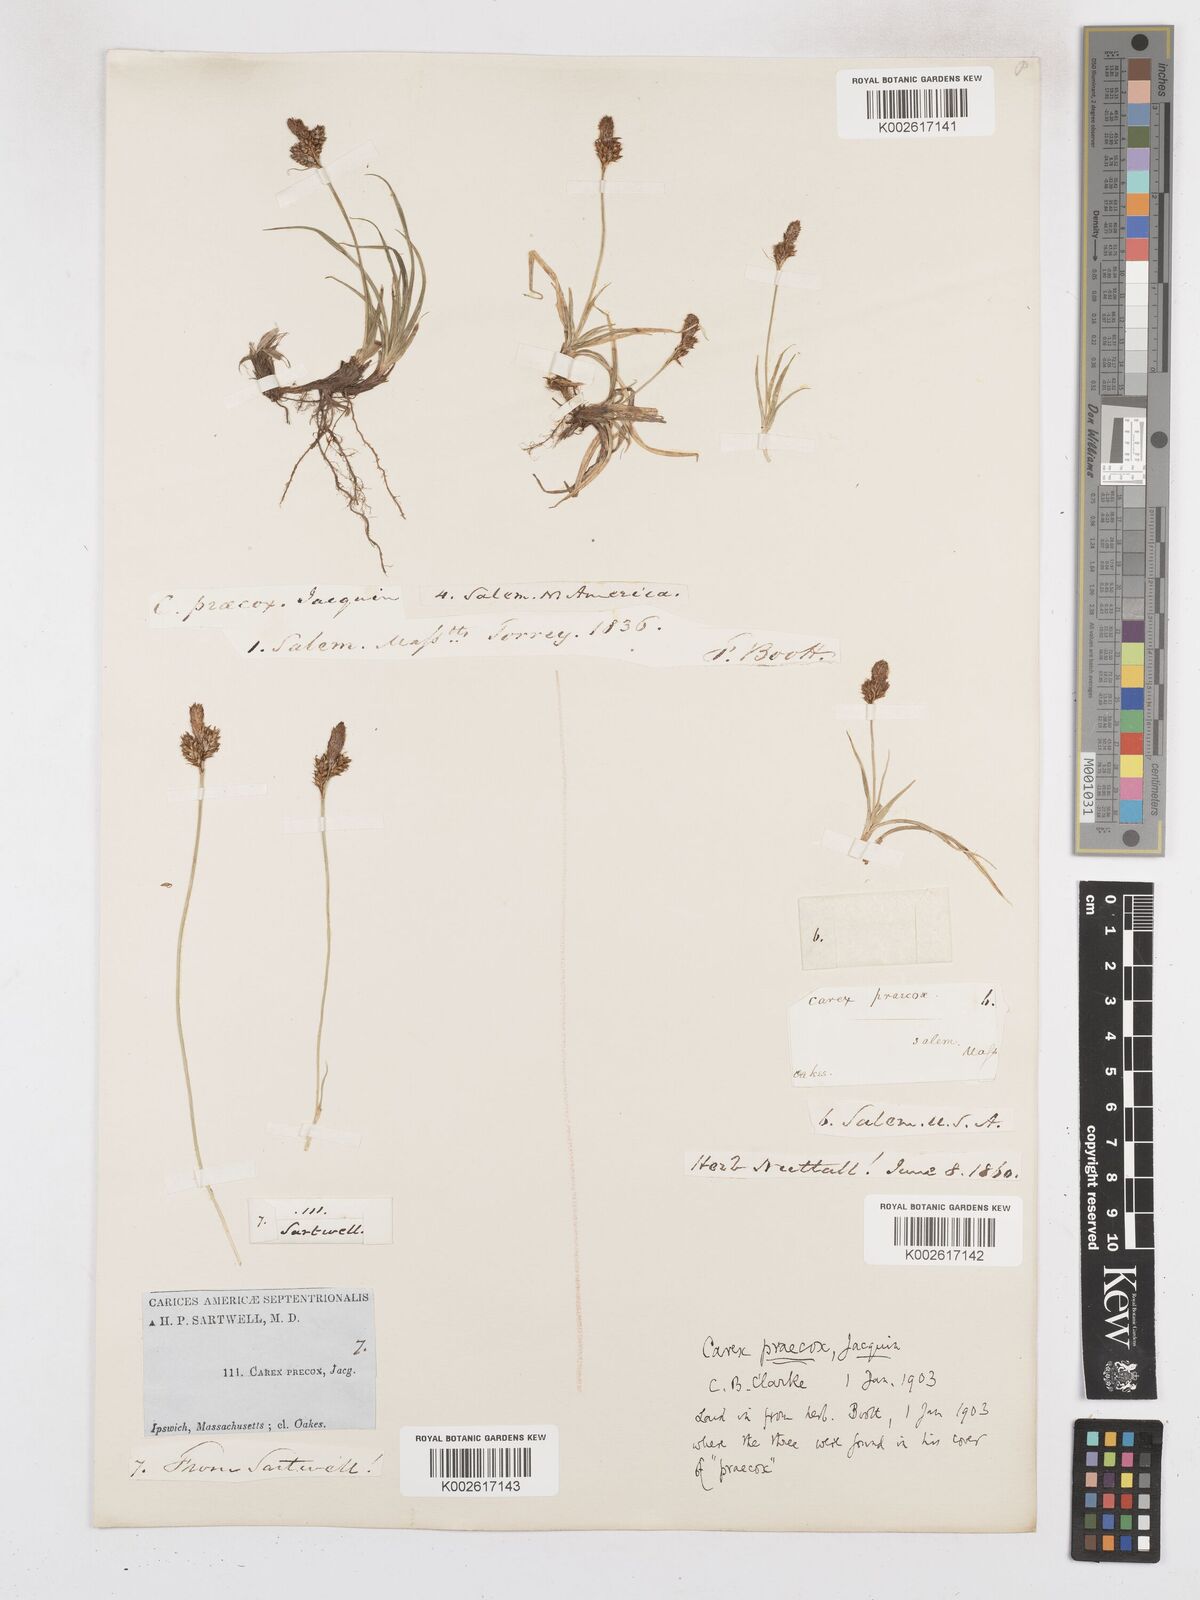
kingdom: Plantae
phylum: Tracheophyta
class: Liliopsida
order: Poales
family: Cyperaceae
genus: Carex
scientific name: Carex caryophyllea
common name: Spring sedge
